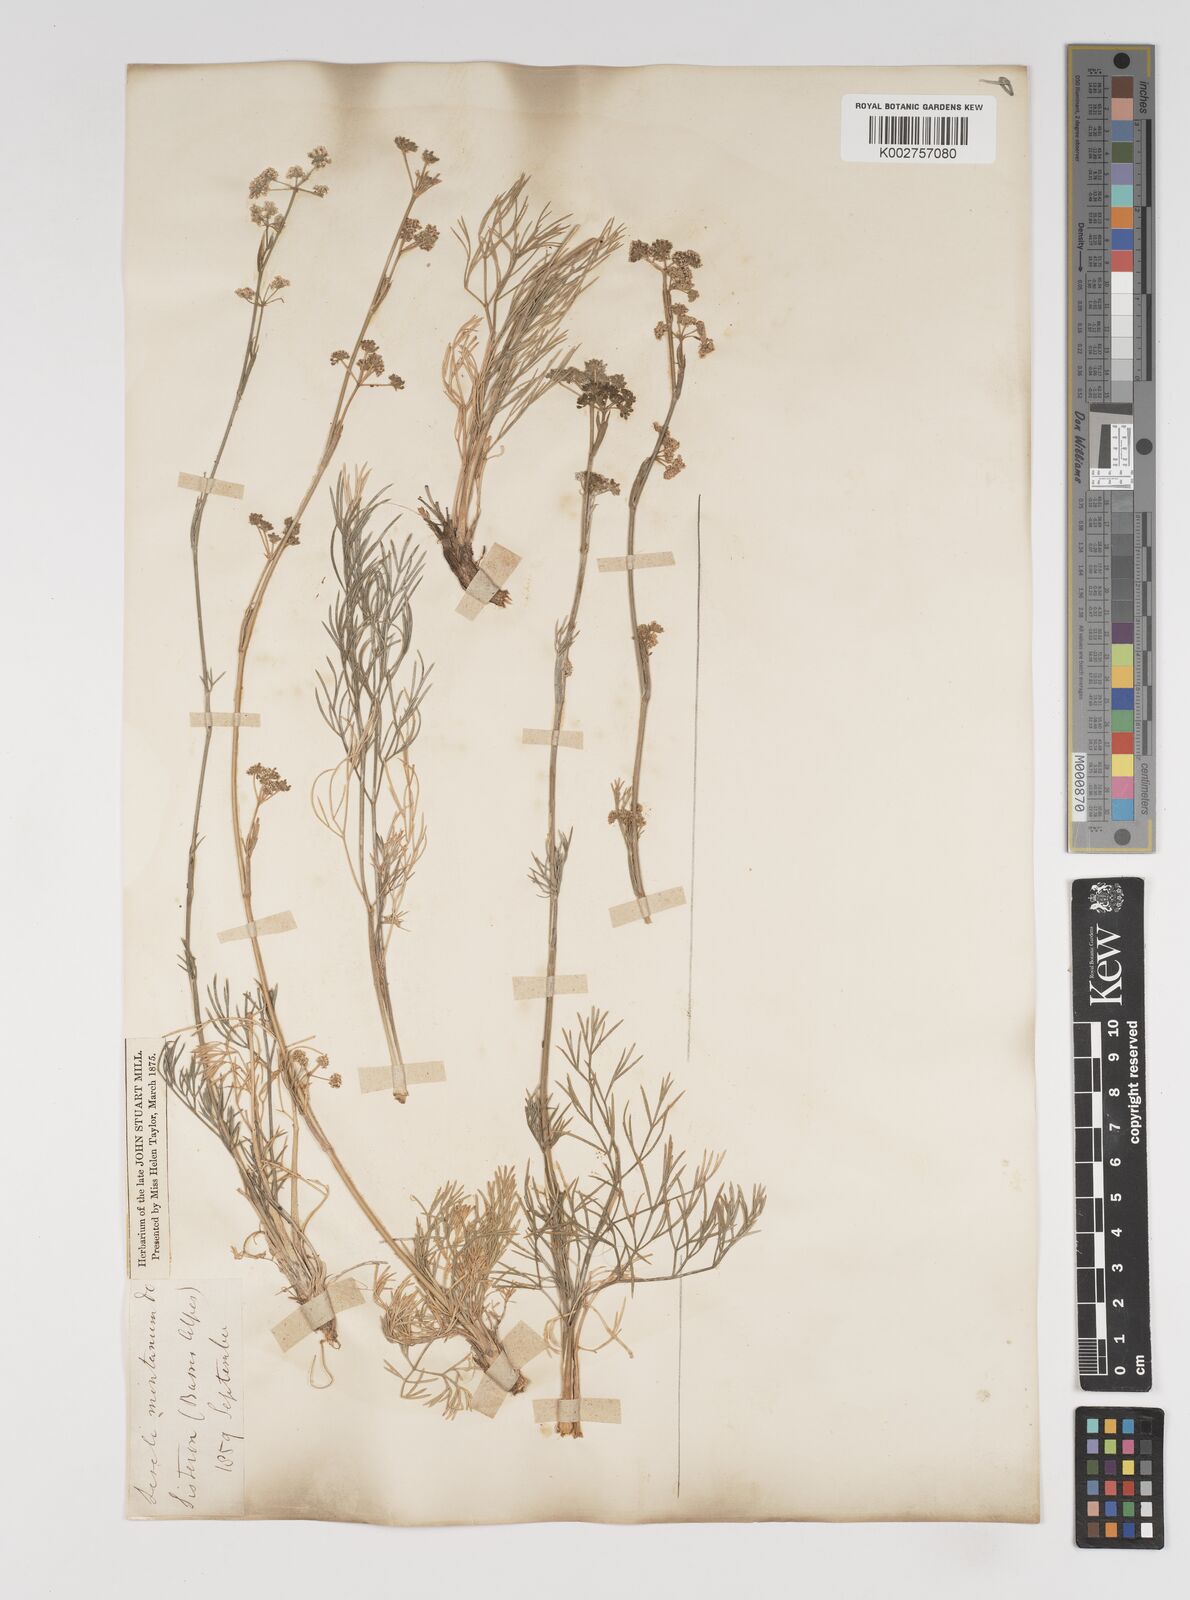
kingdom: Plantae
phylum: Tracheophyta
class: Magnoliopsida
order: Apiales
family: Apiaceae
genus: Seseli
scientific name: Seseli montanum
